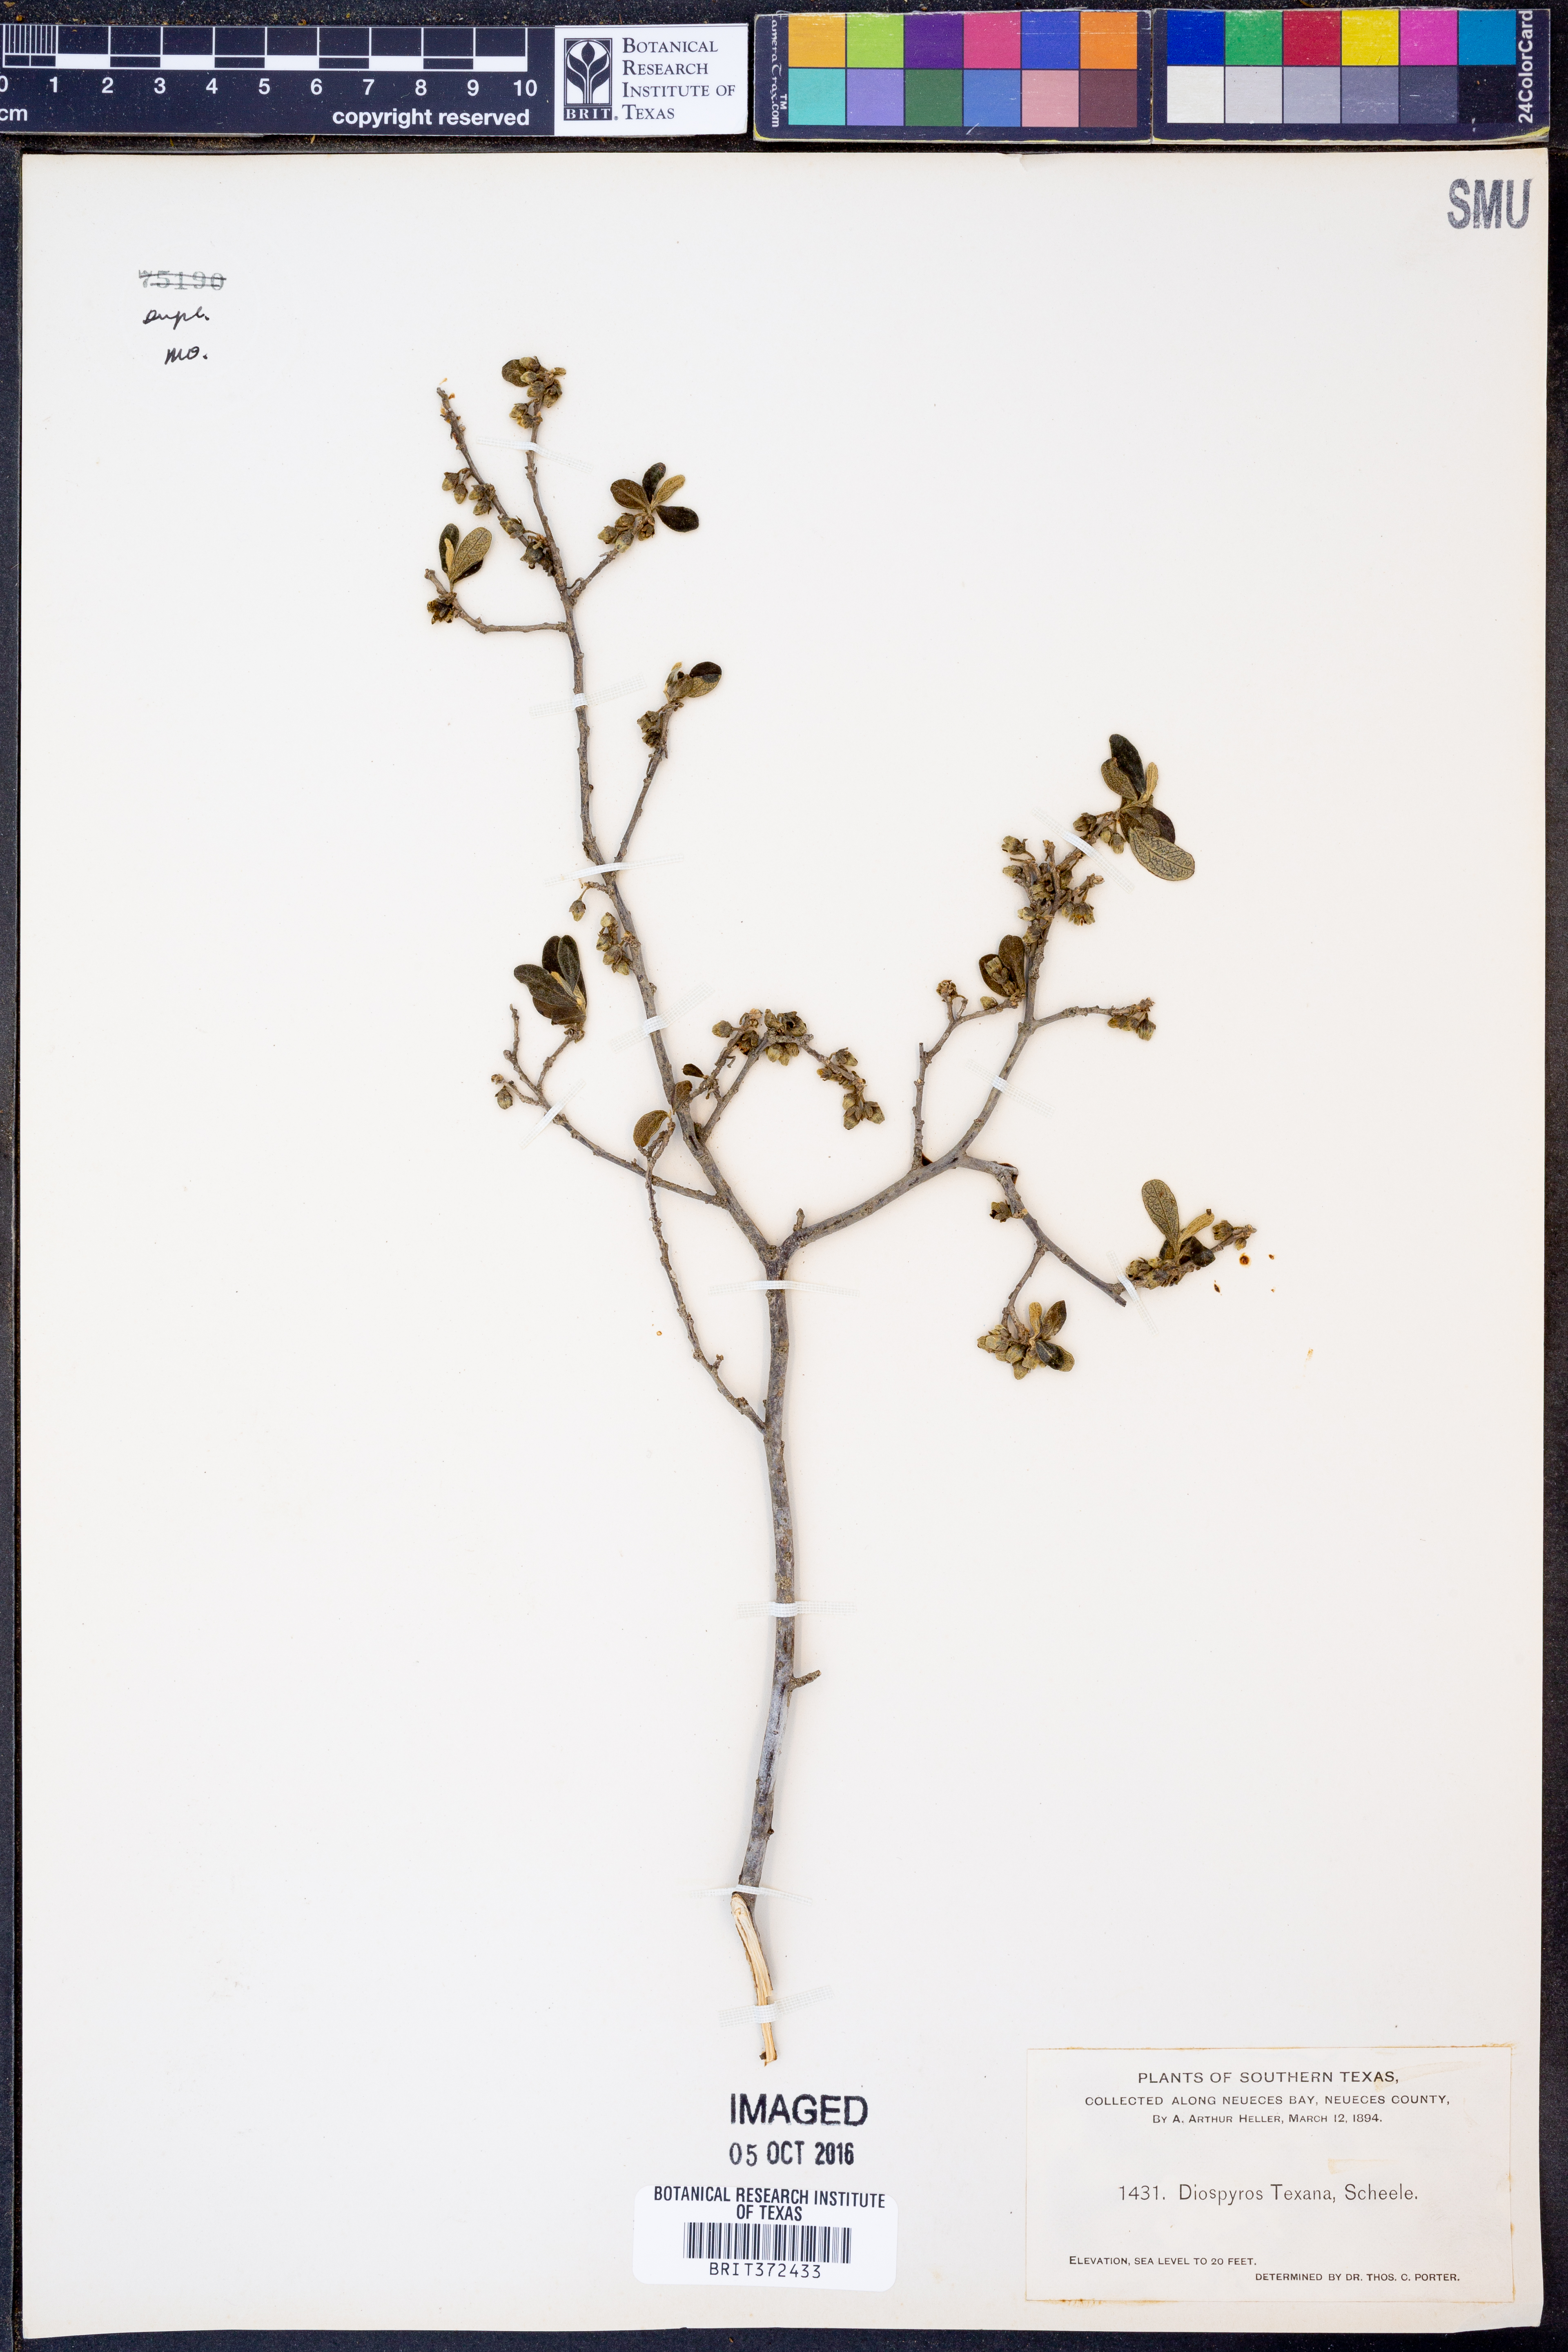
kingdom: Plantae
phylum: Tracheophyta
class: Magnoliopsida
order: Ericales
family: Ebenaceae
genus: Diospyros
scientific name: Diospyros texana
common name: Texas persimmon
